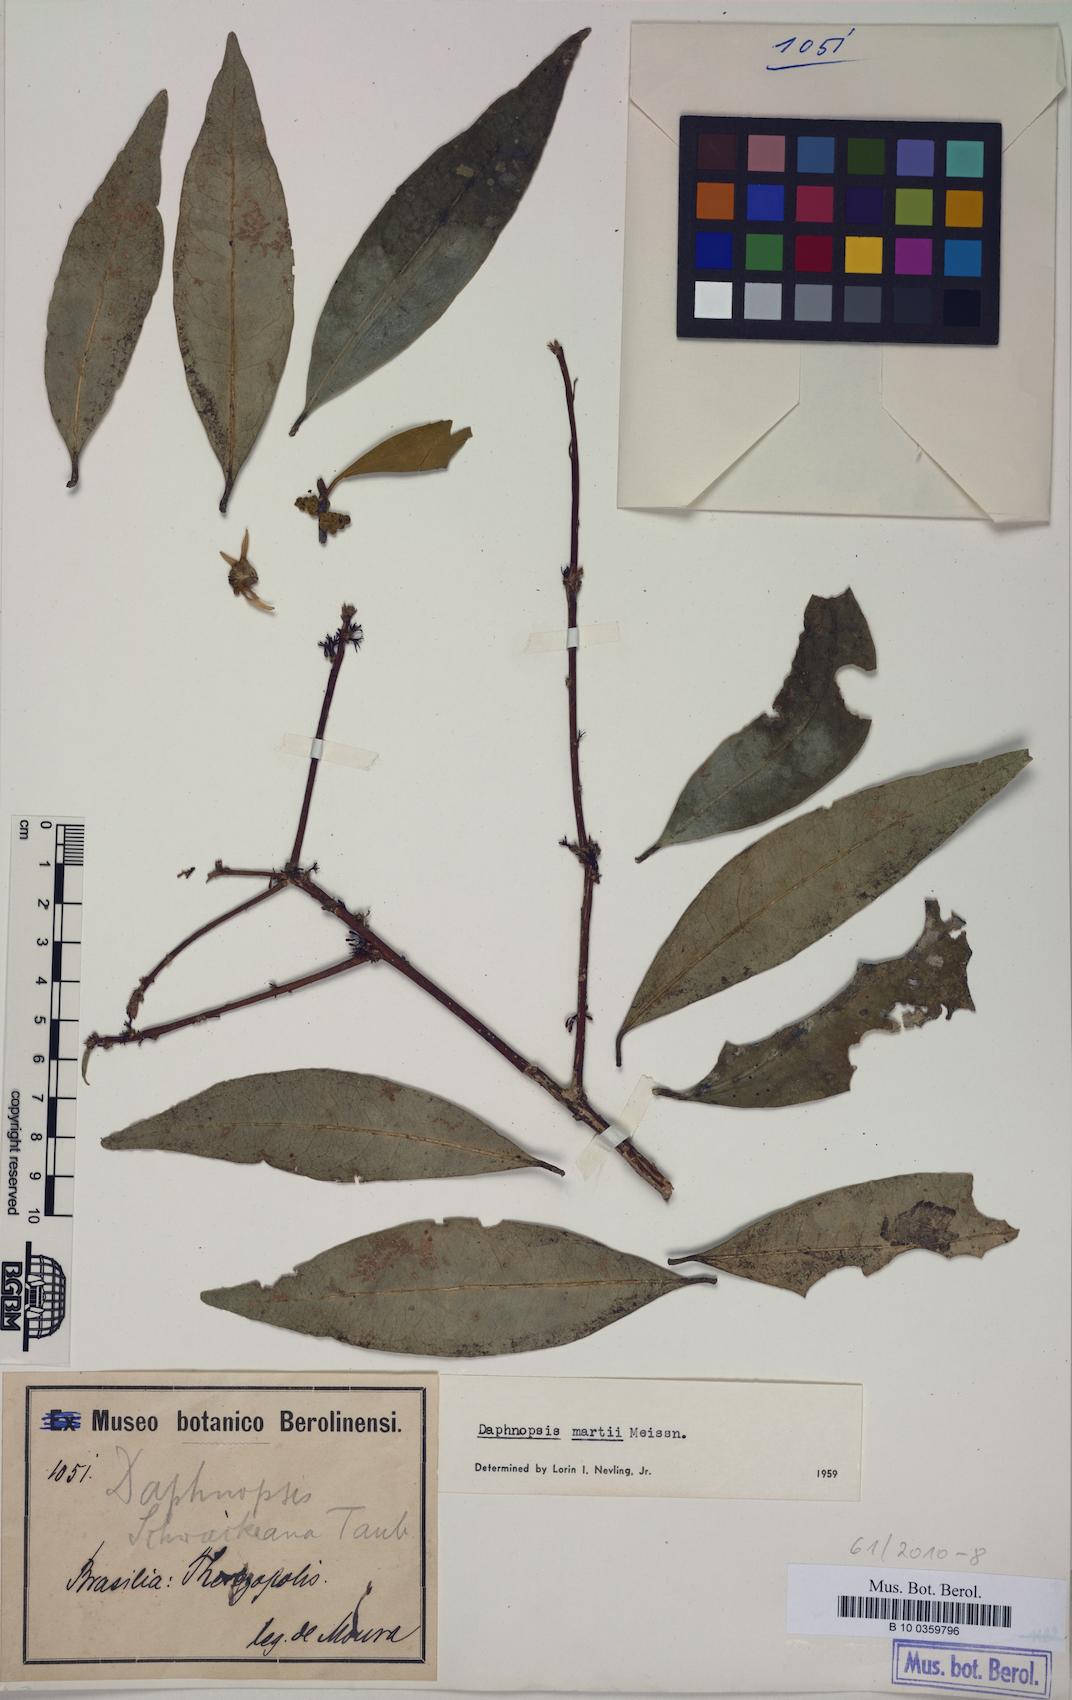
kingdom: Plantae
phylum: Tracheophyta
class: Magnoliopsida
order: Malvales
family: Thymelaeaceae
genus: Daphnopsis
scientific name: Daphnopsis martii
